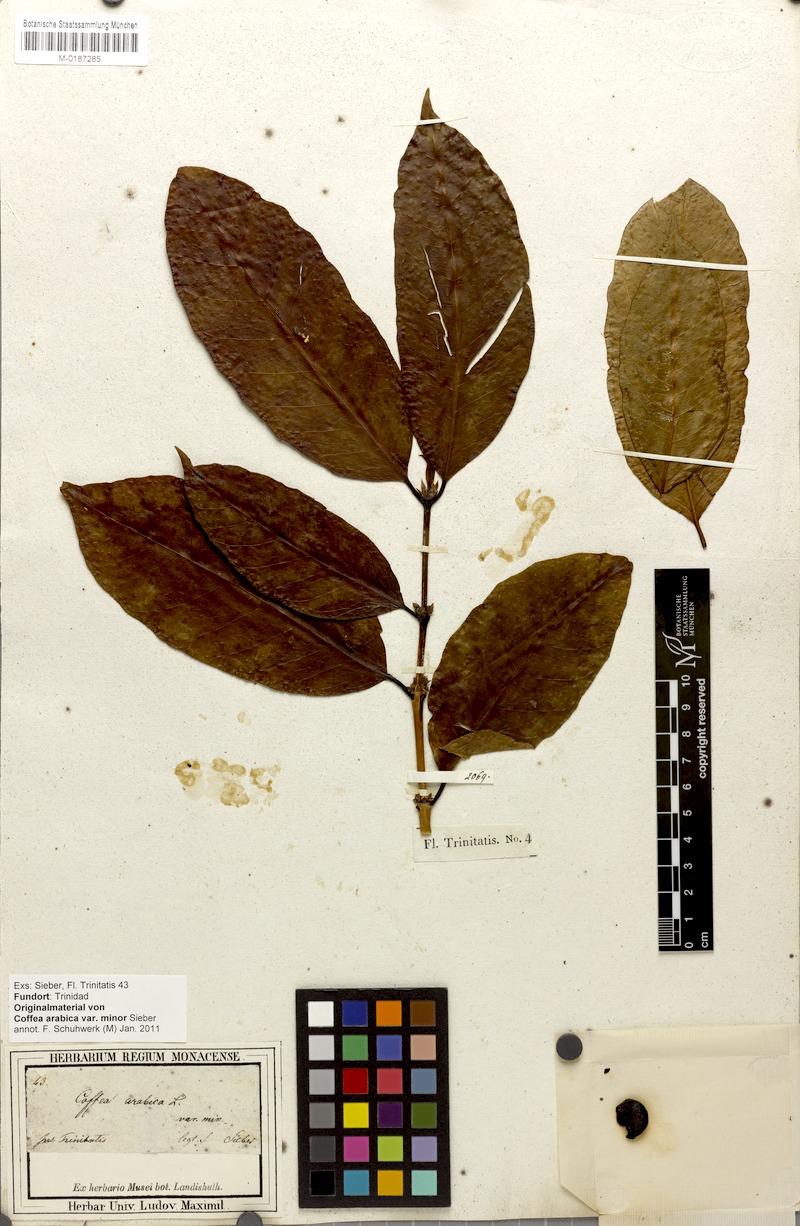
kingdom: Plantae
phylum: Tracheophyta
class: Magnoliopsida
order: Gentianales
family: Rubiaceae
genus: Coffea
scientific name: Coffea arabica
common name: Coffee
